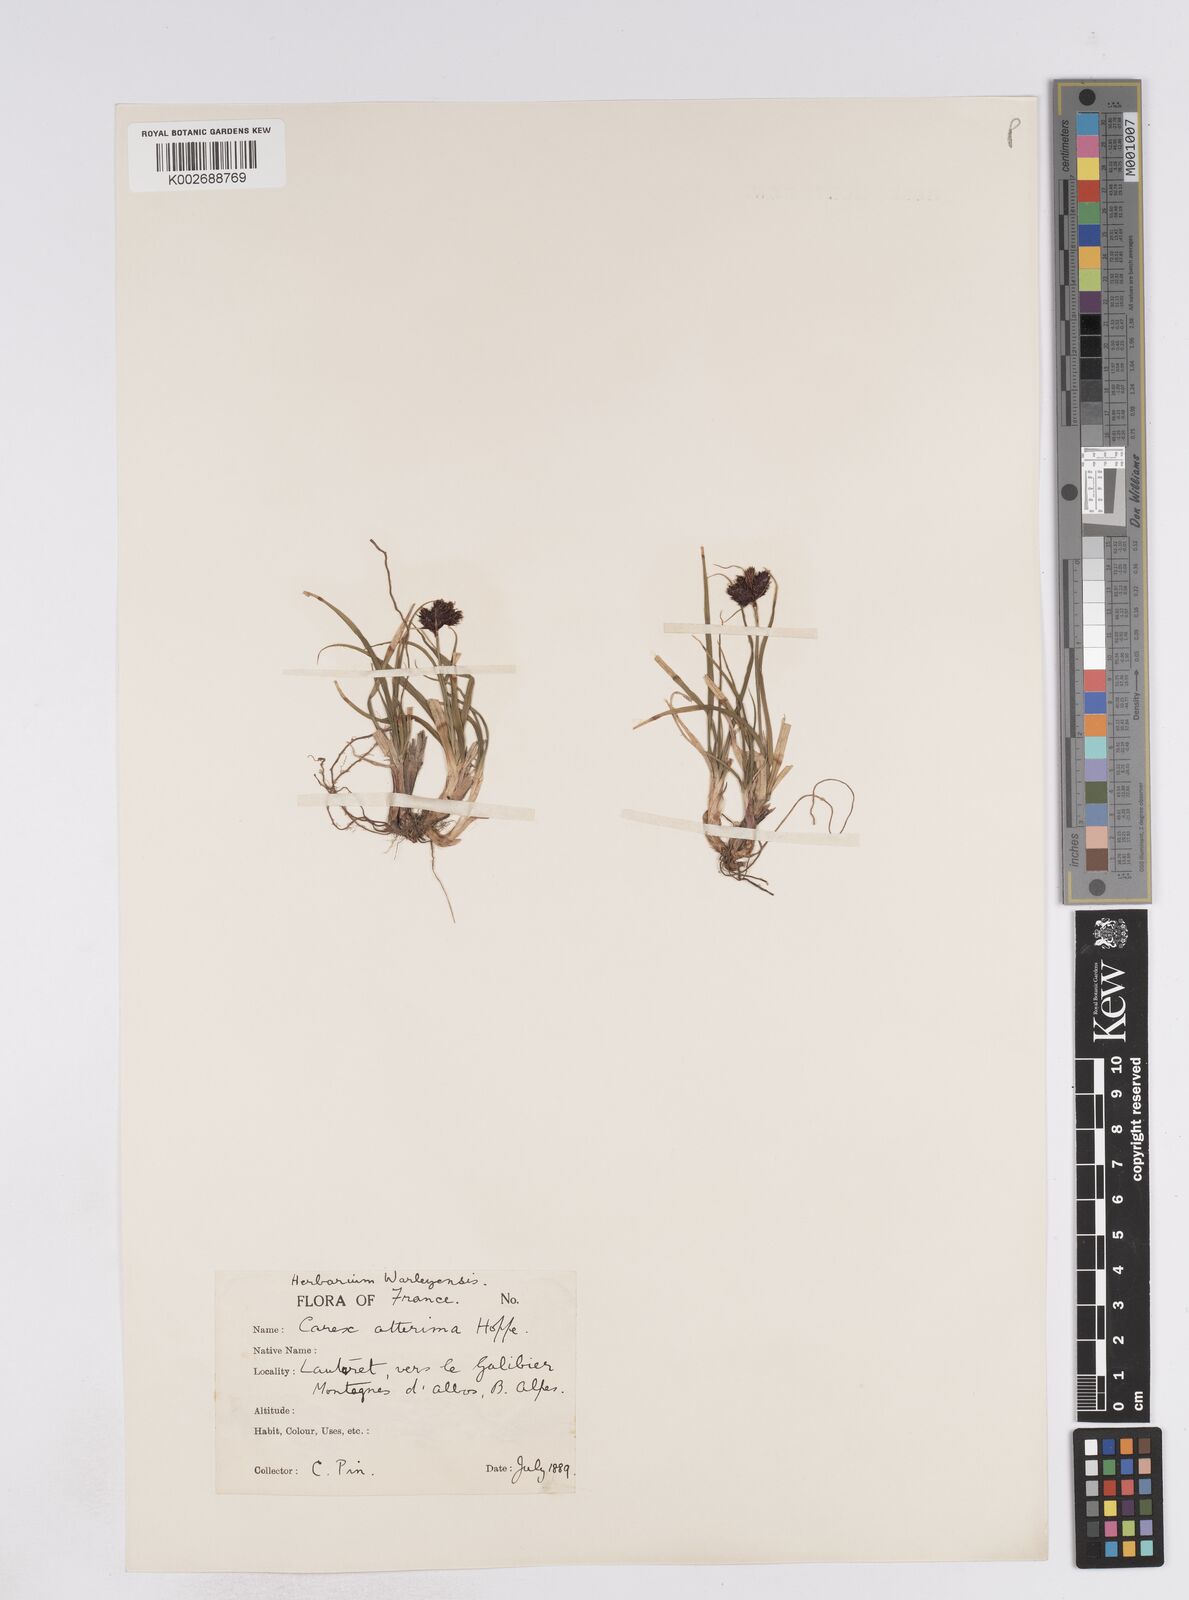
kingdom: Plantae
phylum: Tracheophyta
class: Liliopsida
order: Poales
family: Cyperaceae
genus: Carex
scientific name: Carex parviflora
